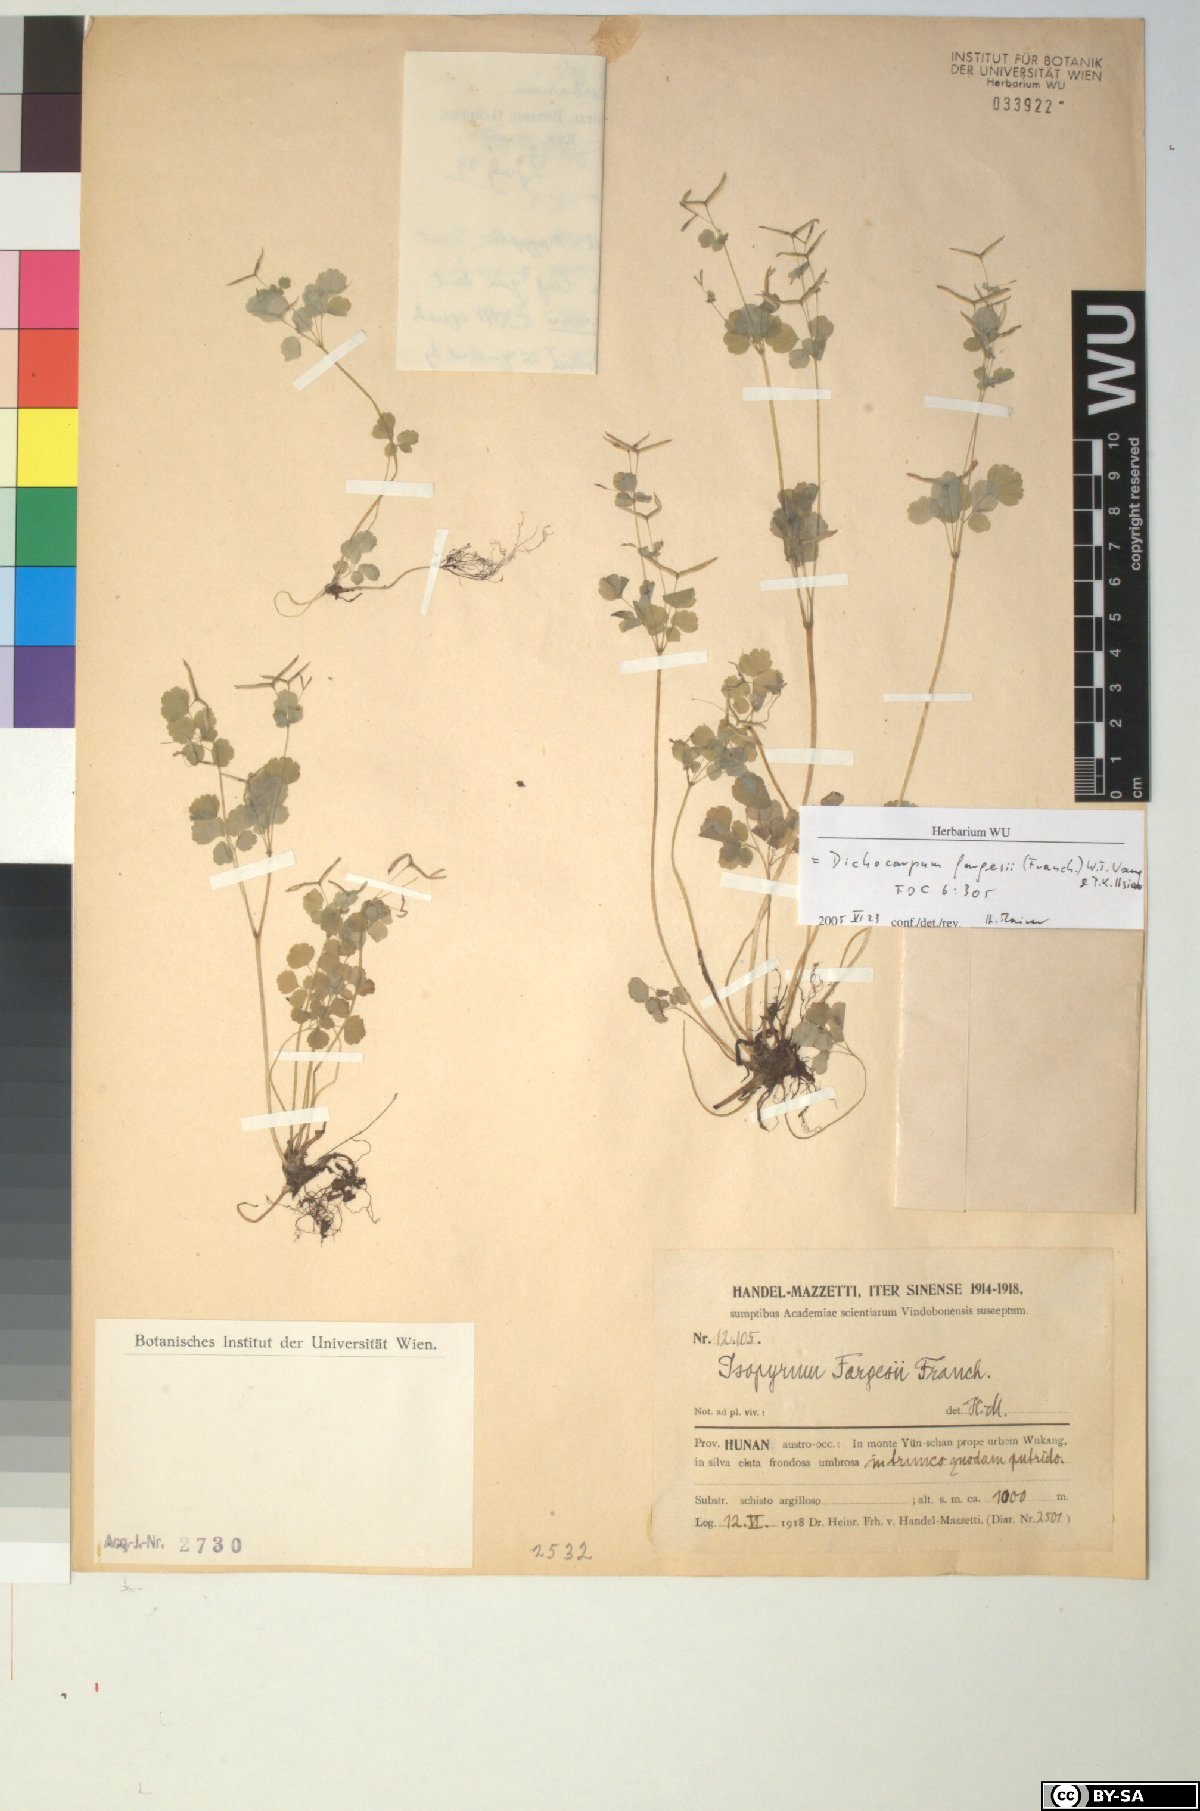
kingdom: Plantae
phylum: Tracheophyta
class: Magnoliopsida
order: Ranunculales
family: Ranunculaceae
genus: Dichocarpum
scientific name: Dichocarpum fargesii
